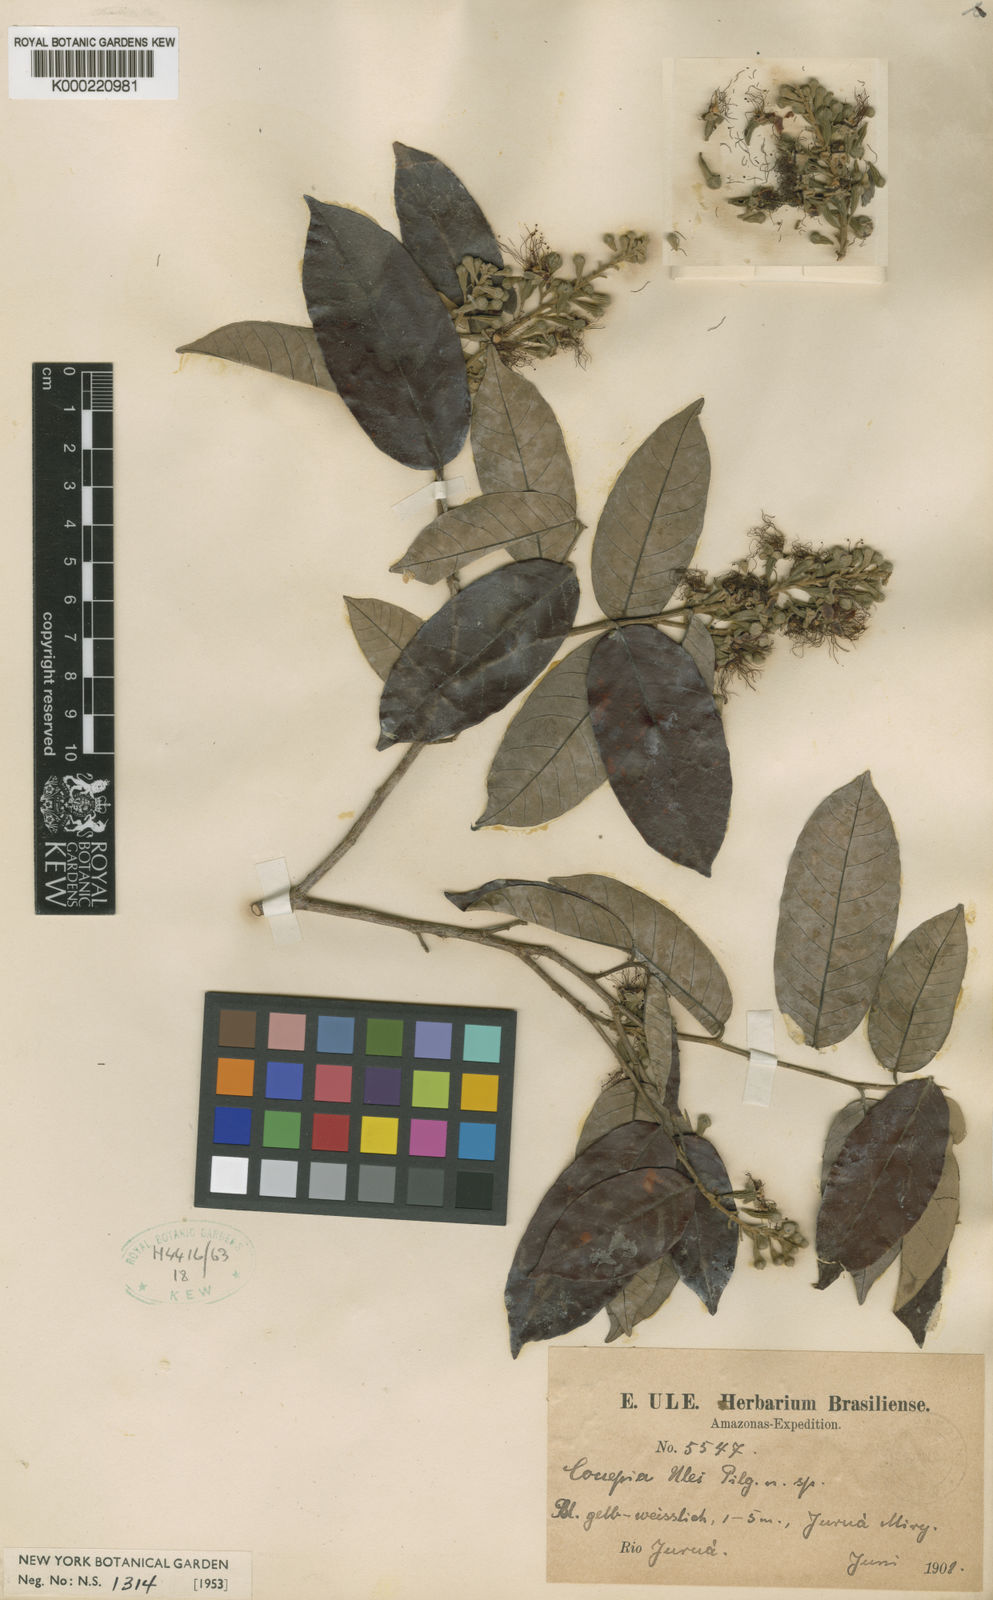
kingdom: Plantae
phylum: Tracheophyta
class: Magnoliopsida
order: Malpighiales
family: Chrysobalanaceae
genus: Couepia
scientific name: Couepia ulei
